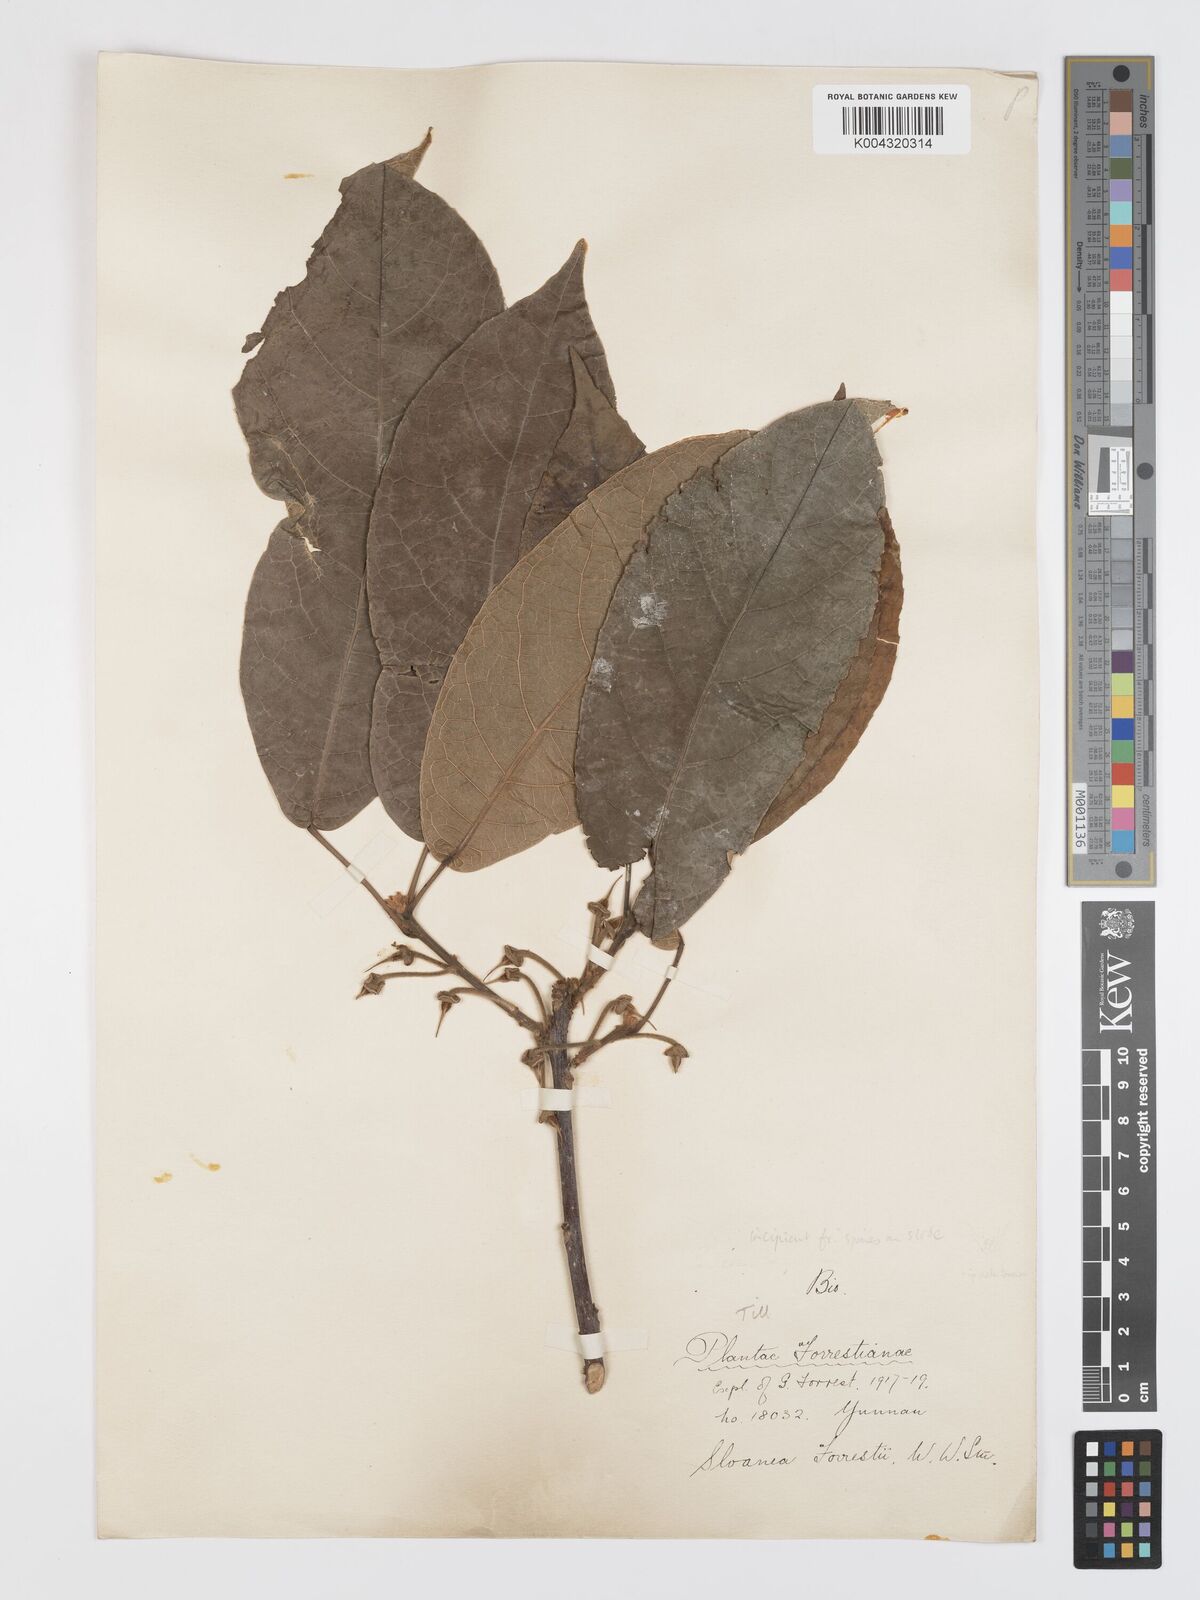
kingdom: Plantae
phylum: Tracheophyta
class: Magnoliopsida
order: Oxalidales
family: Elaeocarpaceae
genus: Sloanea
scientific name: Sloanea sterculiacea
